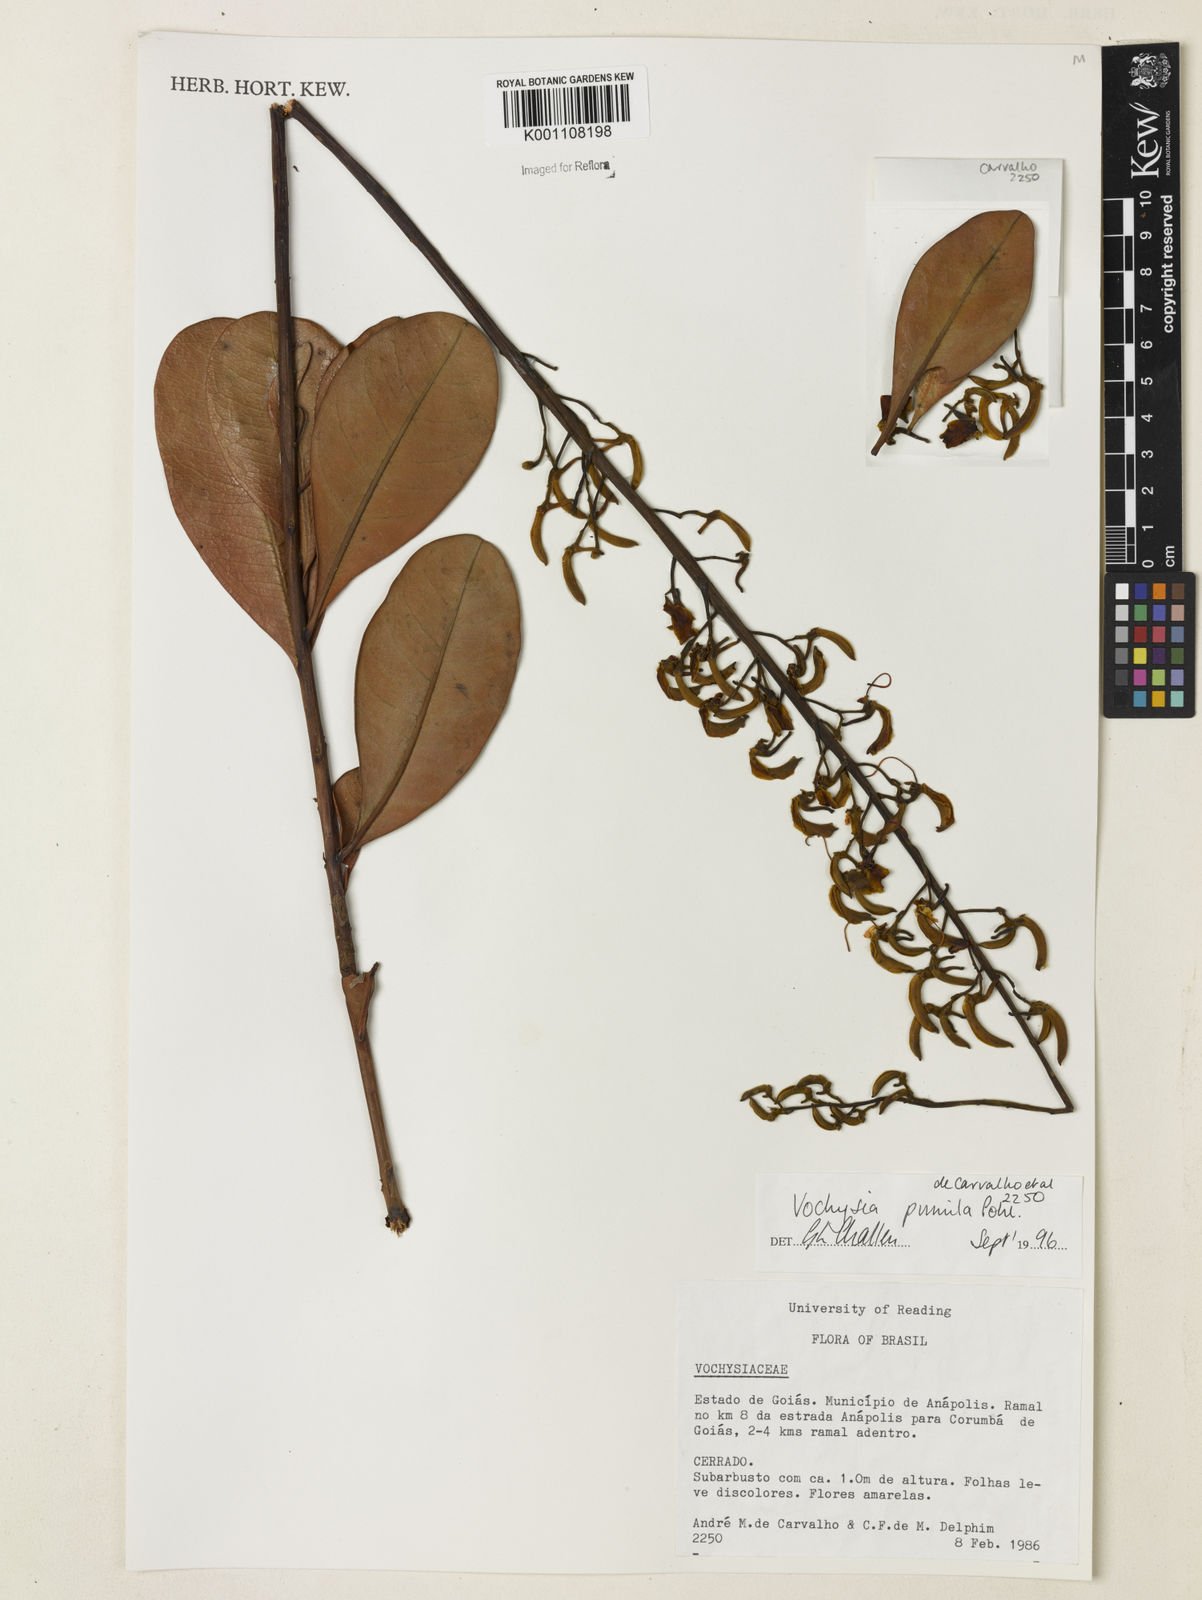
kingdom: Plantae
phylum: Tracheophyta
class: Magnoliopsida
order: Myrtales
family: Vochysiaceae
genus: Vochysia
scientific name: Vochysia pumila
